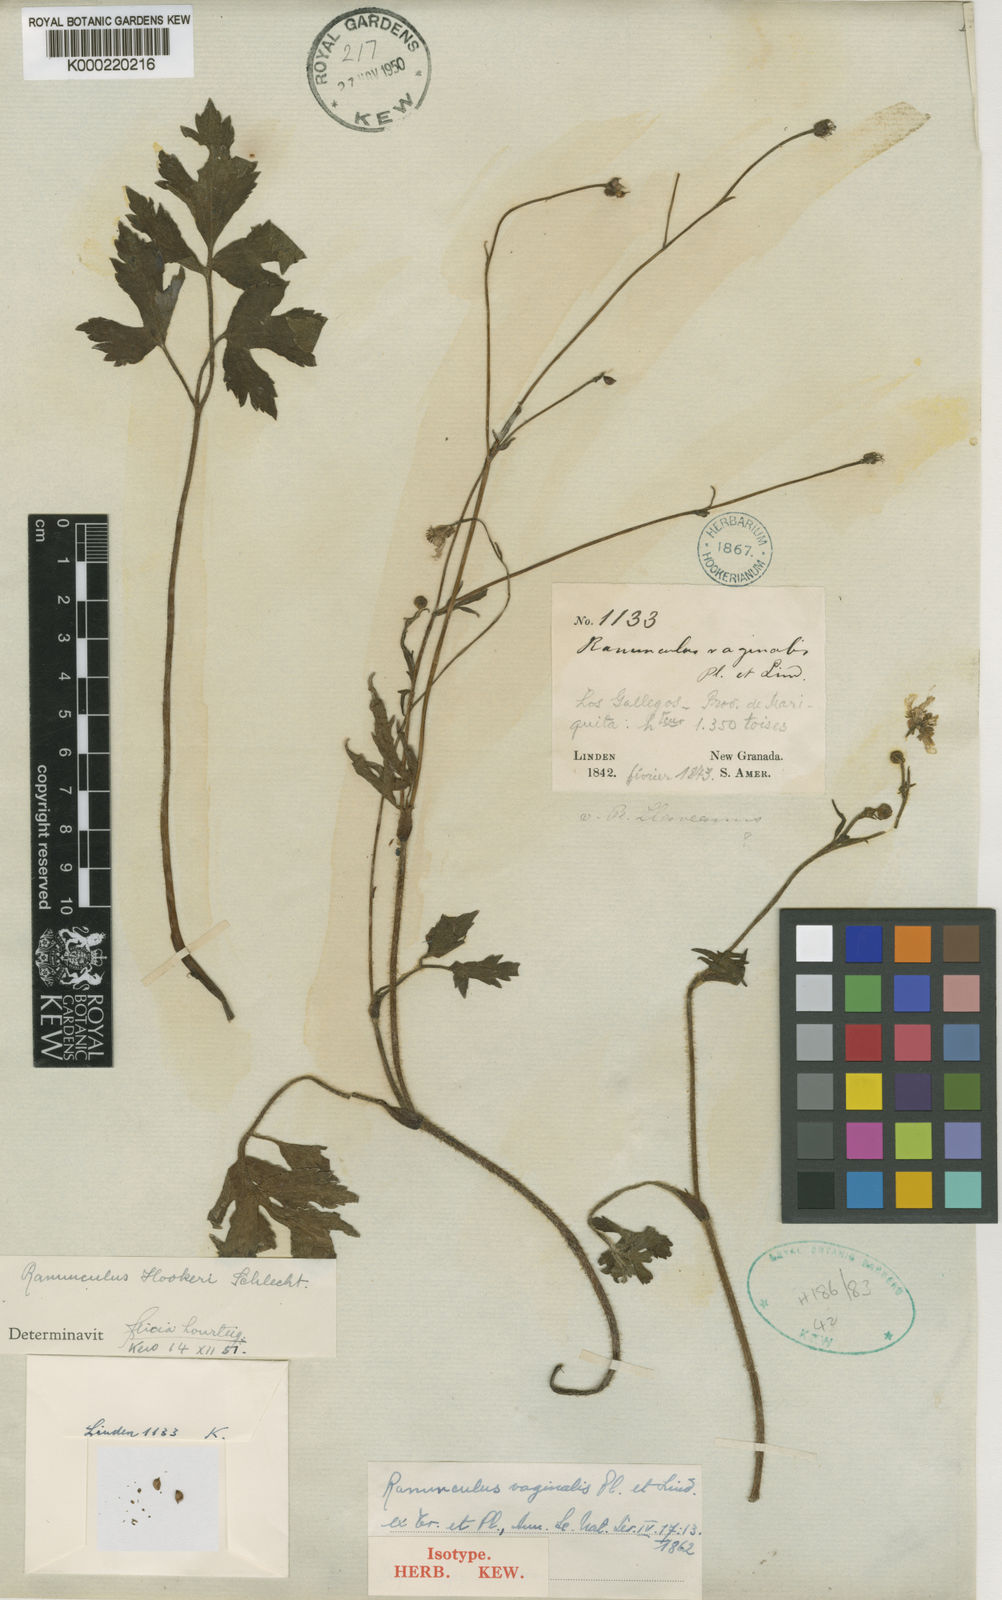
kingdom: Plantae
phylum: Tracheophyta
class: Magnoliopsida
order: Ranunculales
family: Ranunculaceae
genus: Ranunculus
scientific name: Ranunculus
